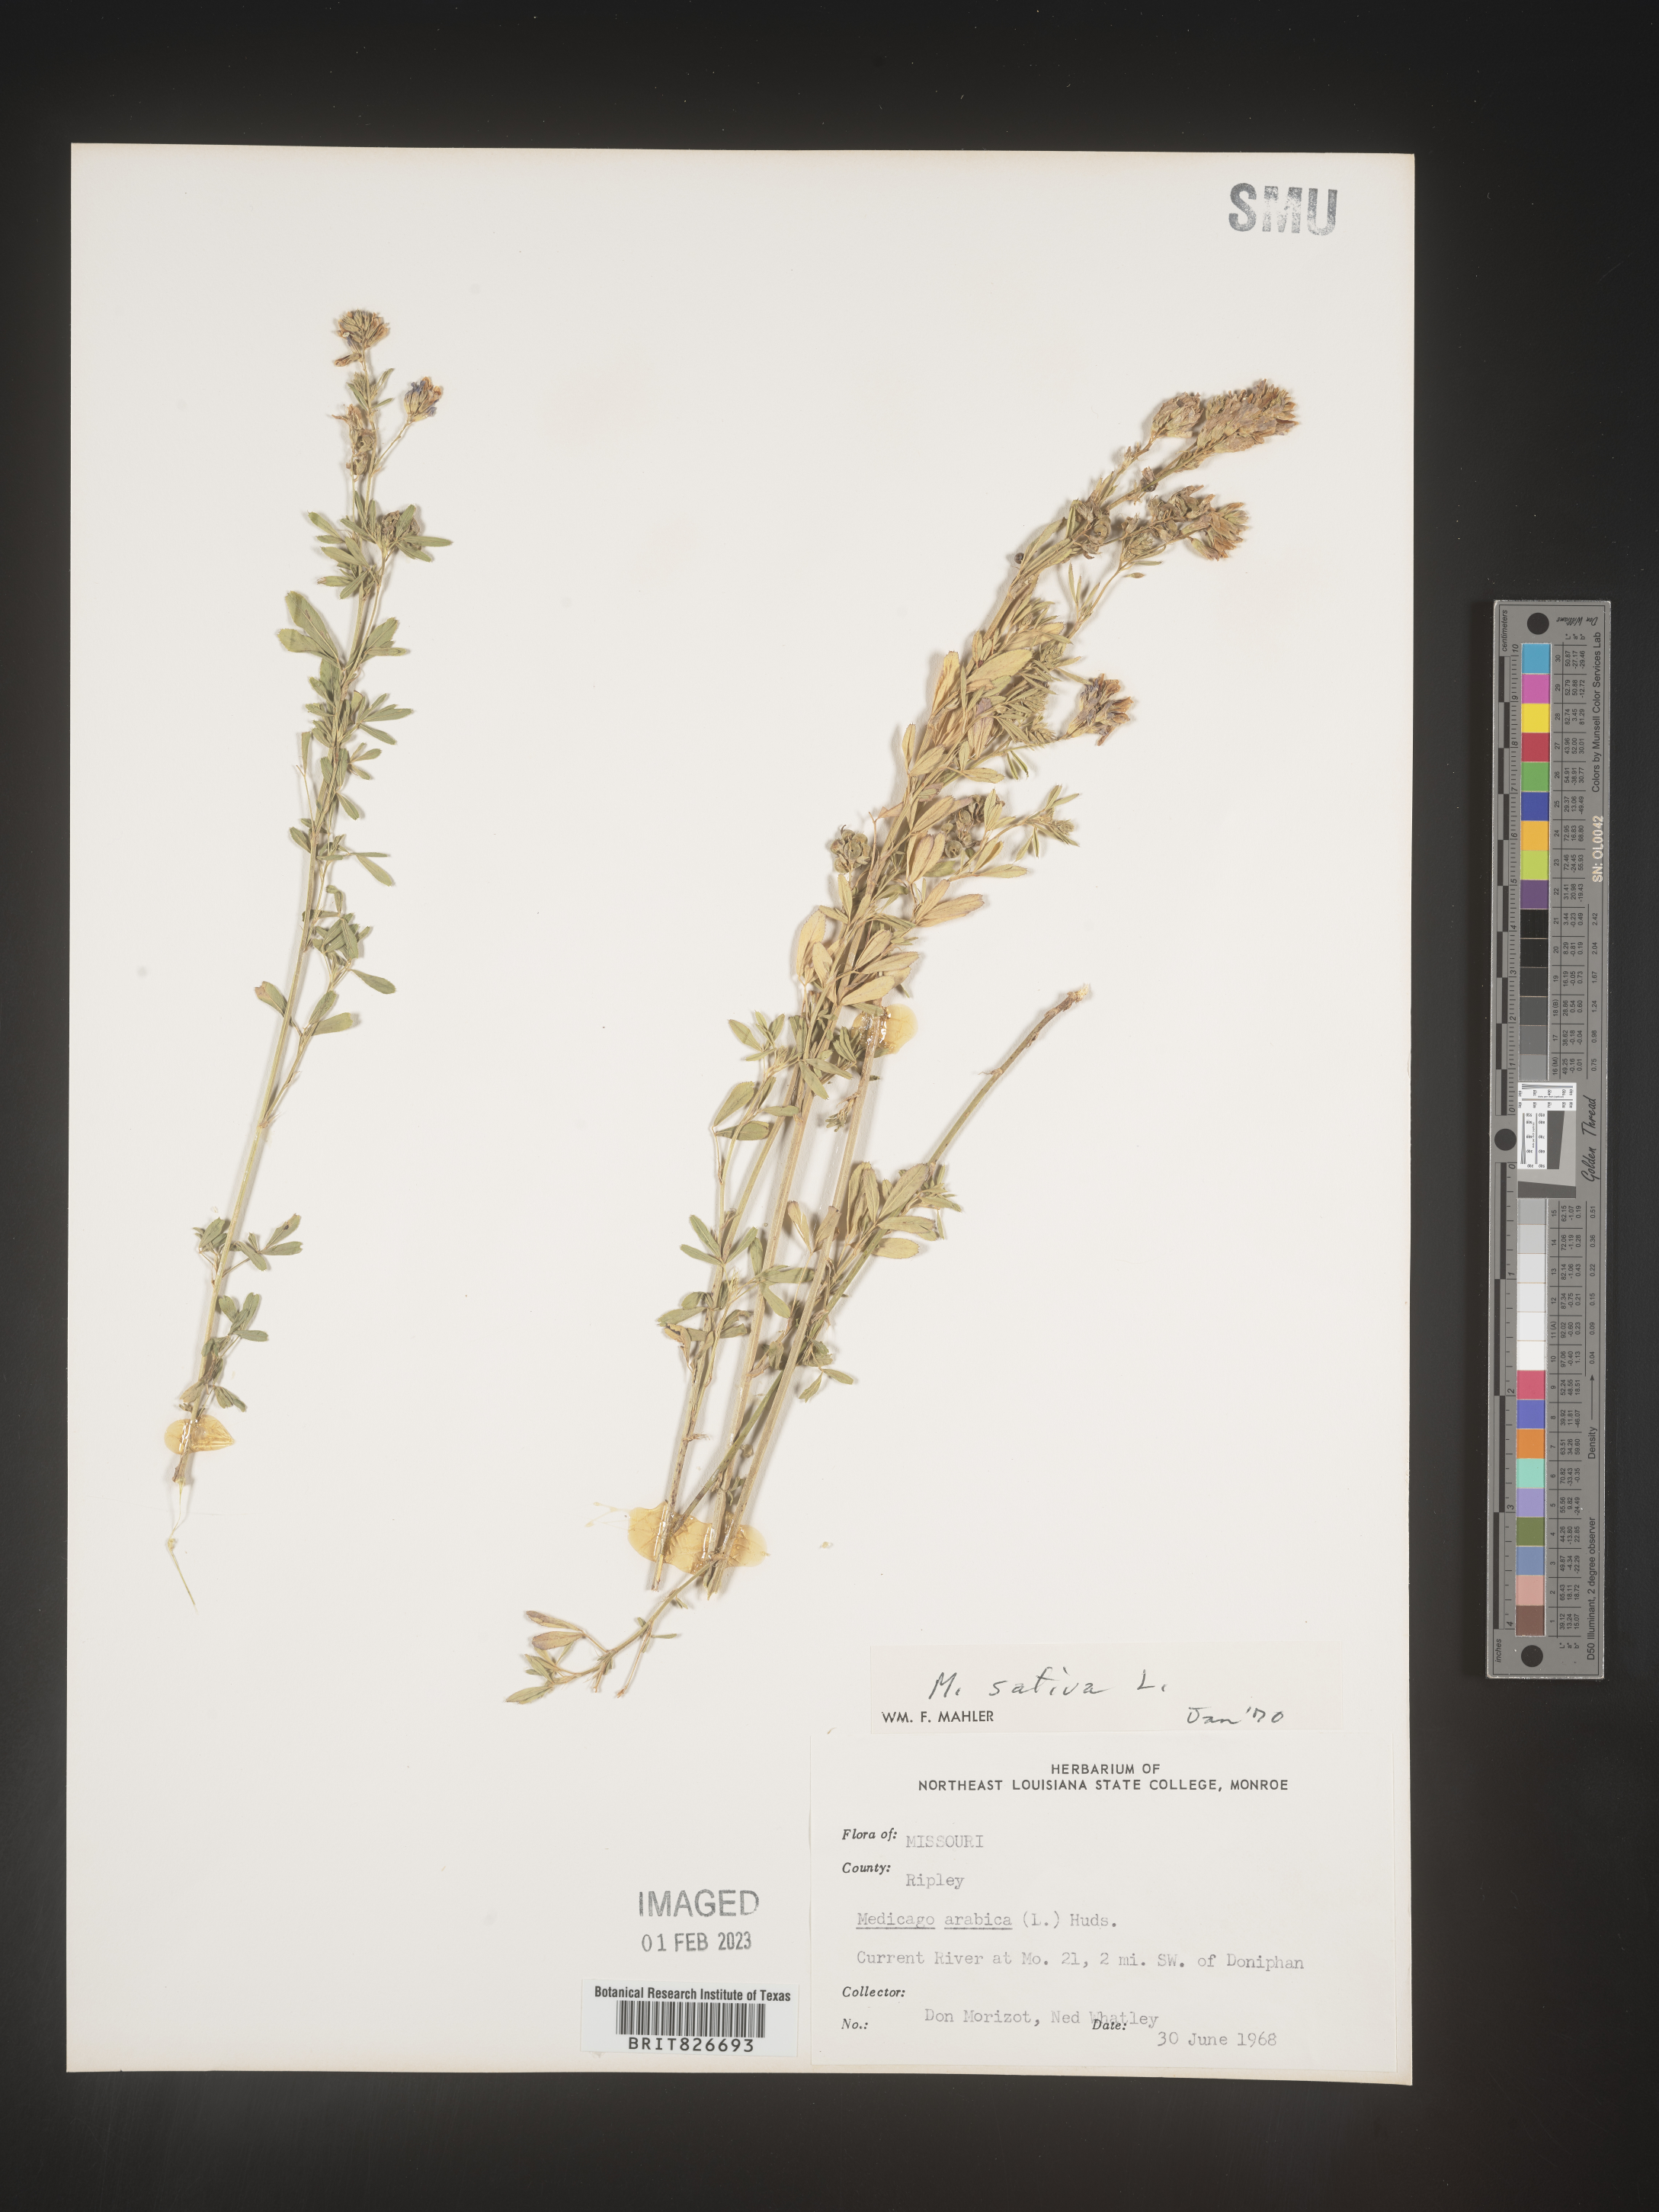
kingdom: Plantae
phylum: Tracheophyta
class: Magnoliopsida
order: Fabales
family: Fabaceae
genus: Medicago
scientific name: Medicago sativa
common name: Alfalfa
